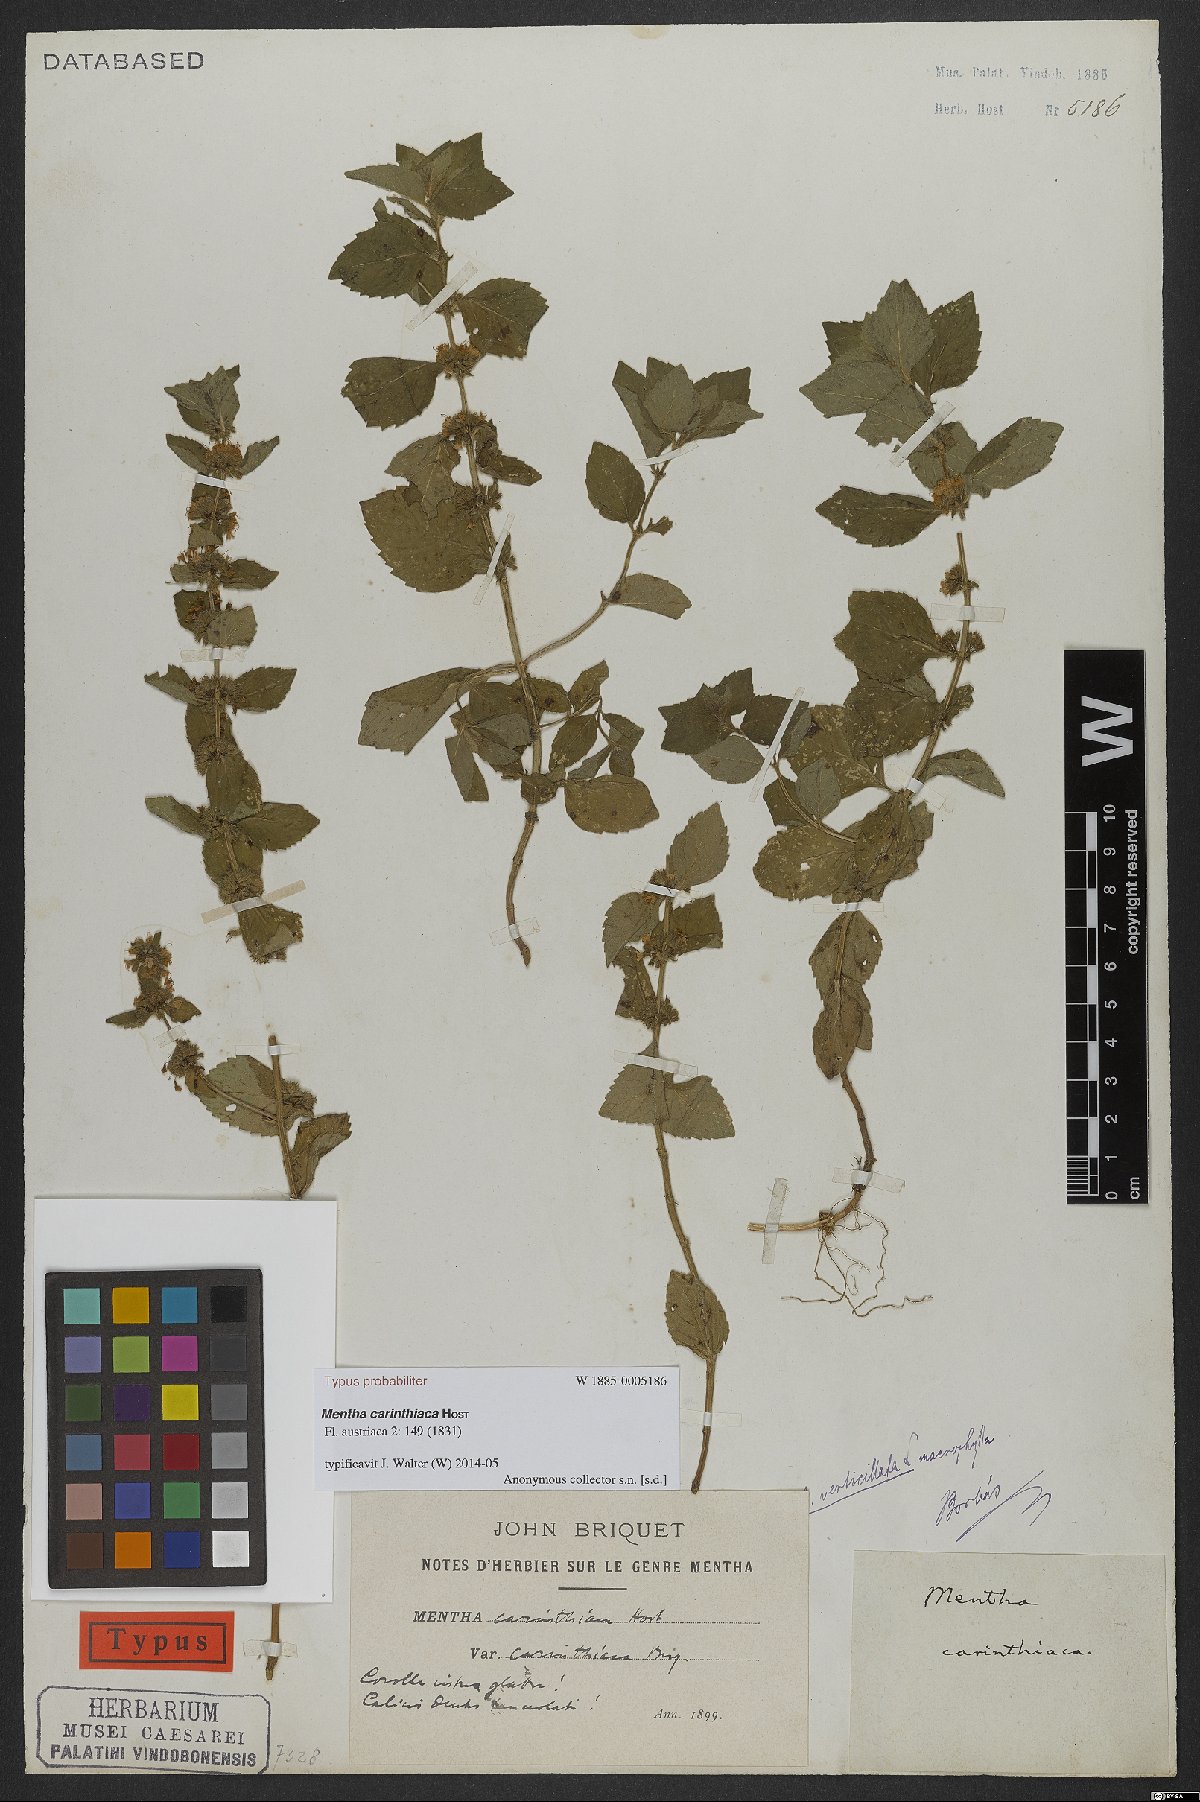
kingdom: Plantae
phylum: Tracheophyta
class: Magnoliopsida
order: Lamiales
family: Lamiaceae
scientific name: Lamiaceae
